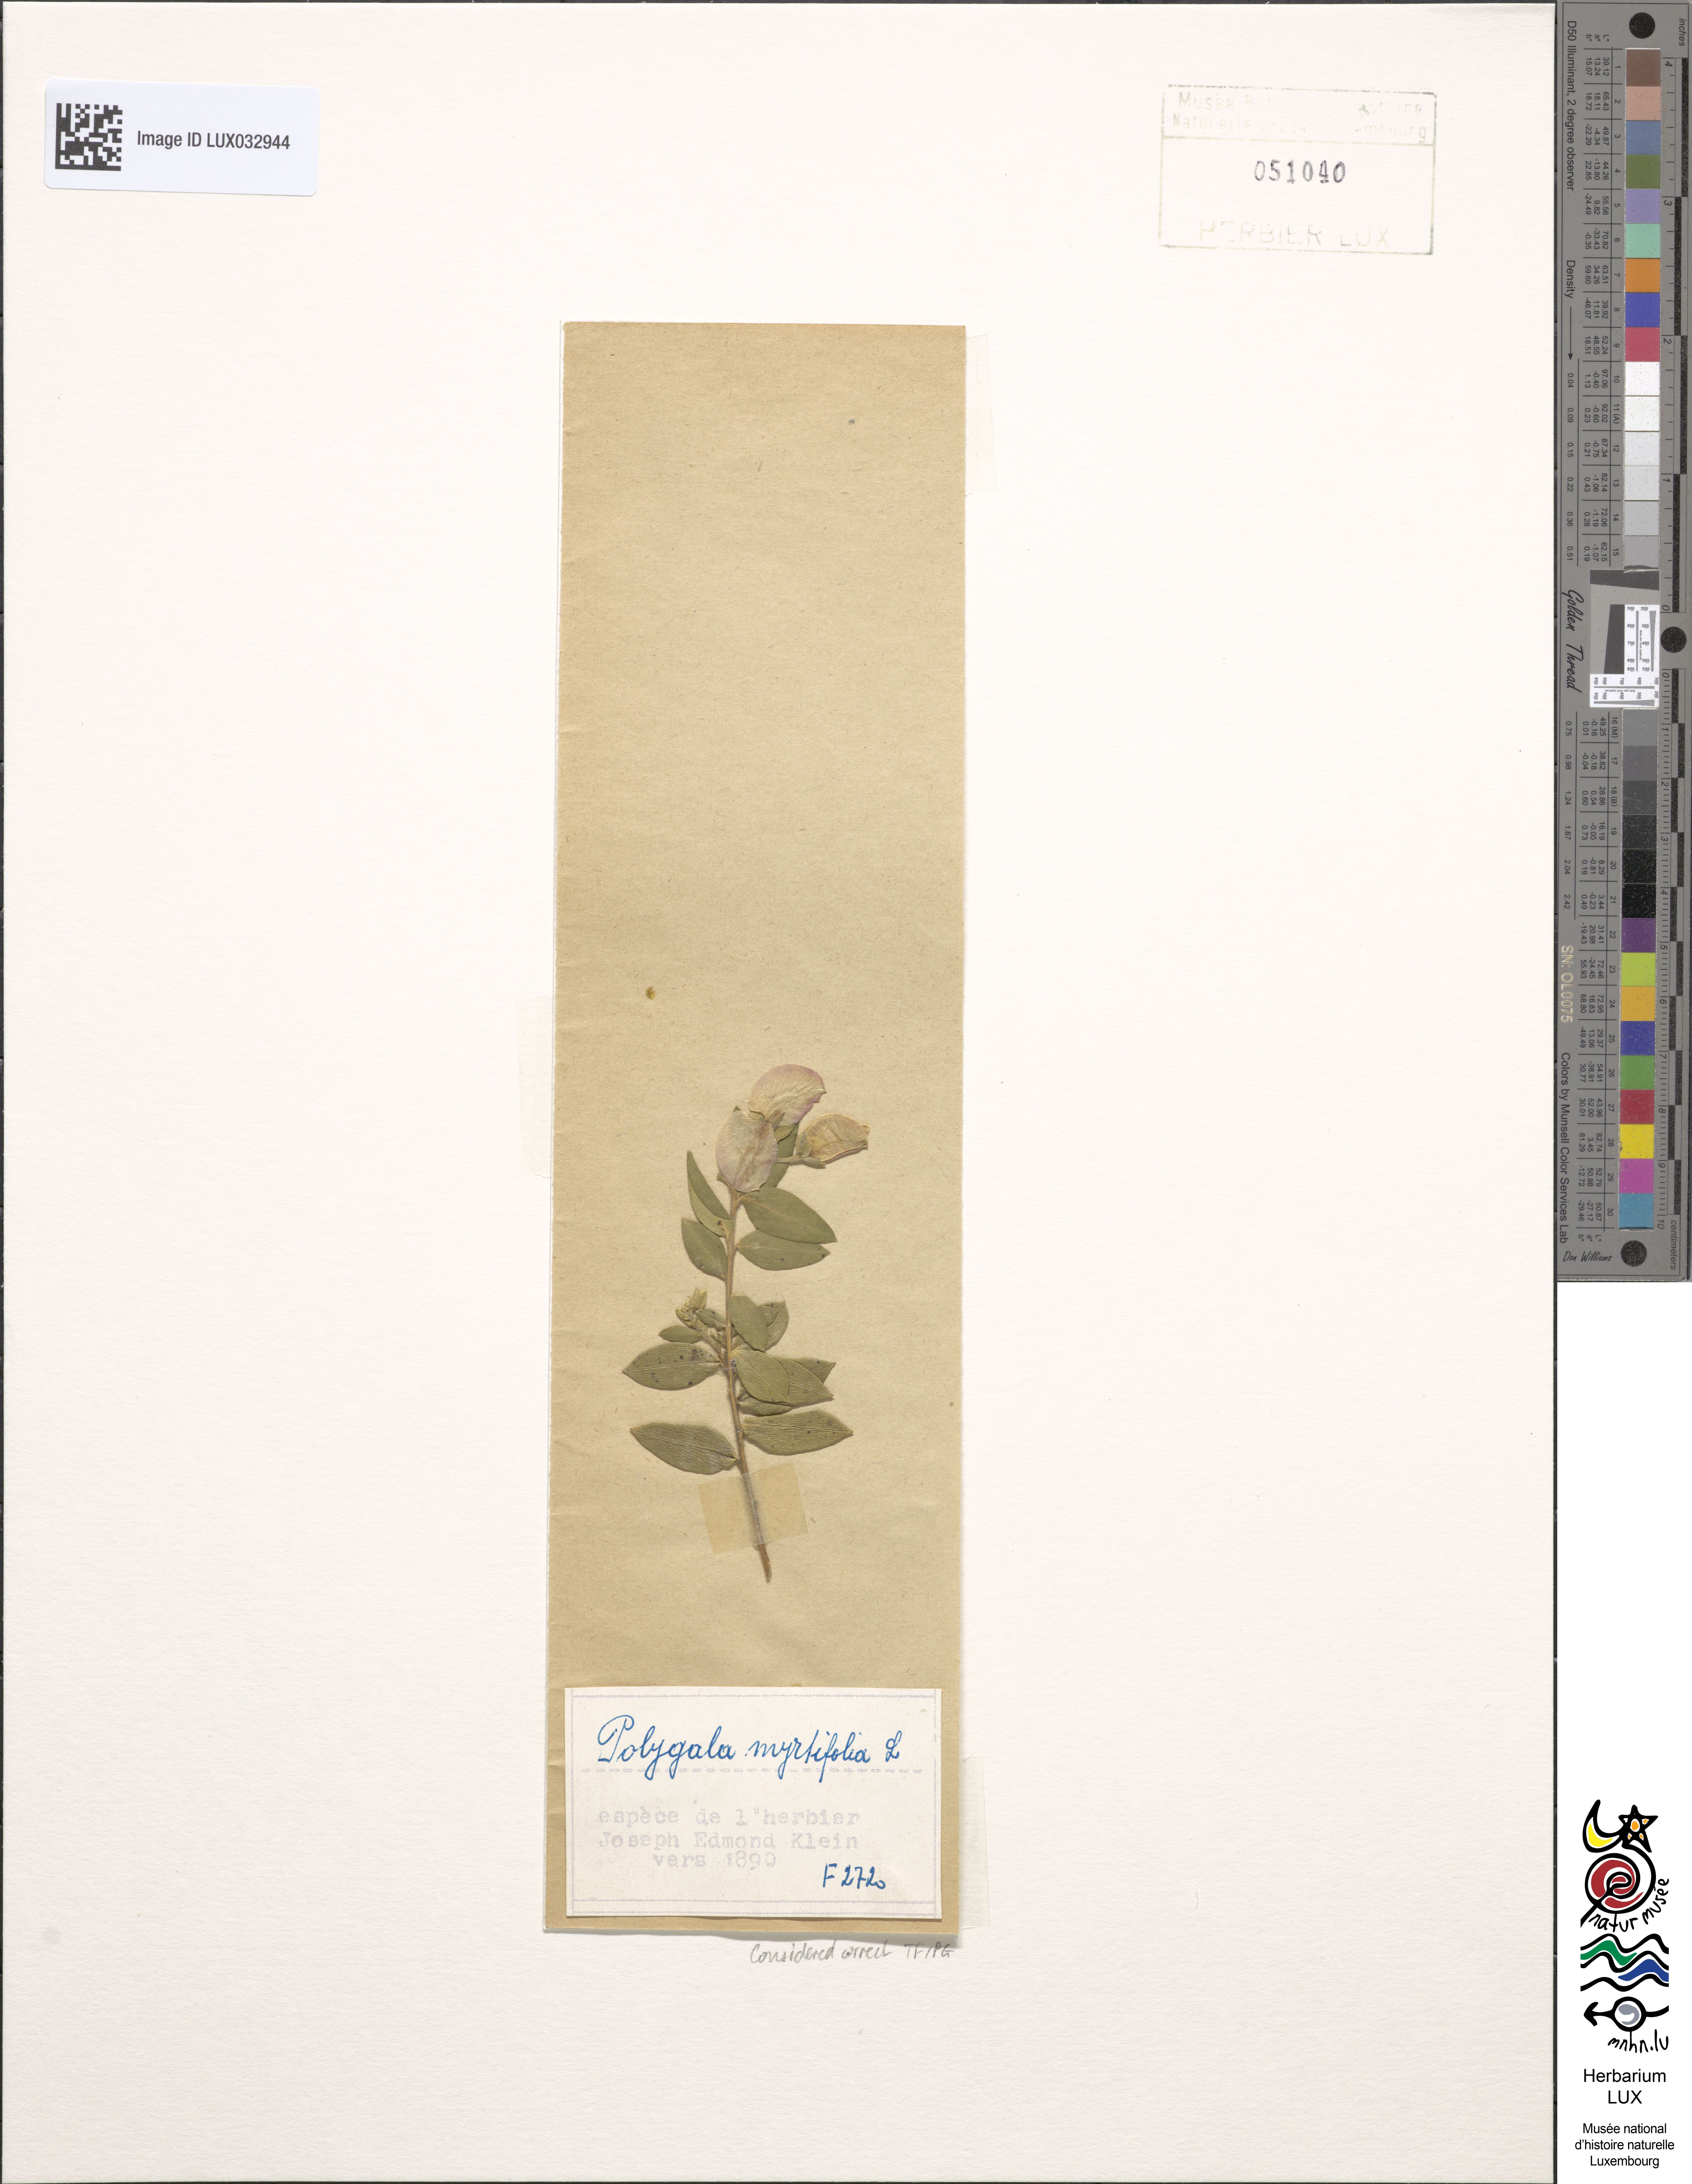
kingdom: Plantae
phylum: Tracheophyta
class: Magnoliopsida
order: Fabales
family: Polygalaceae
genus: Polygala
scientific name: Polygala myrtifolia
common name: Myrtle-leaf milkwort
